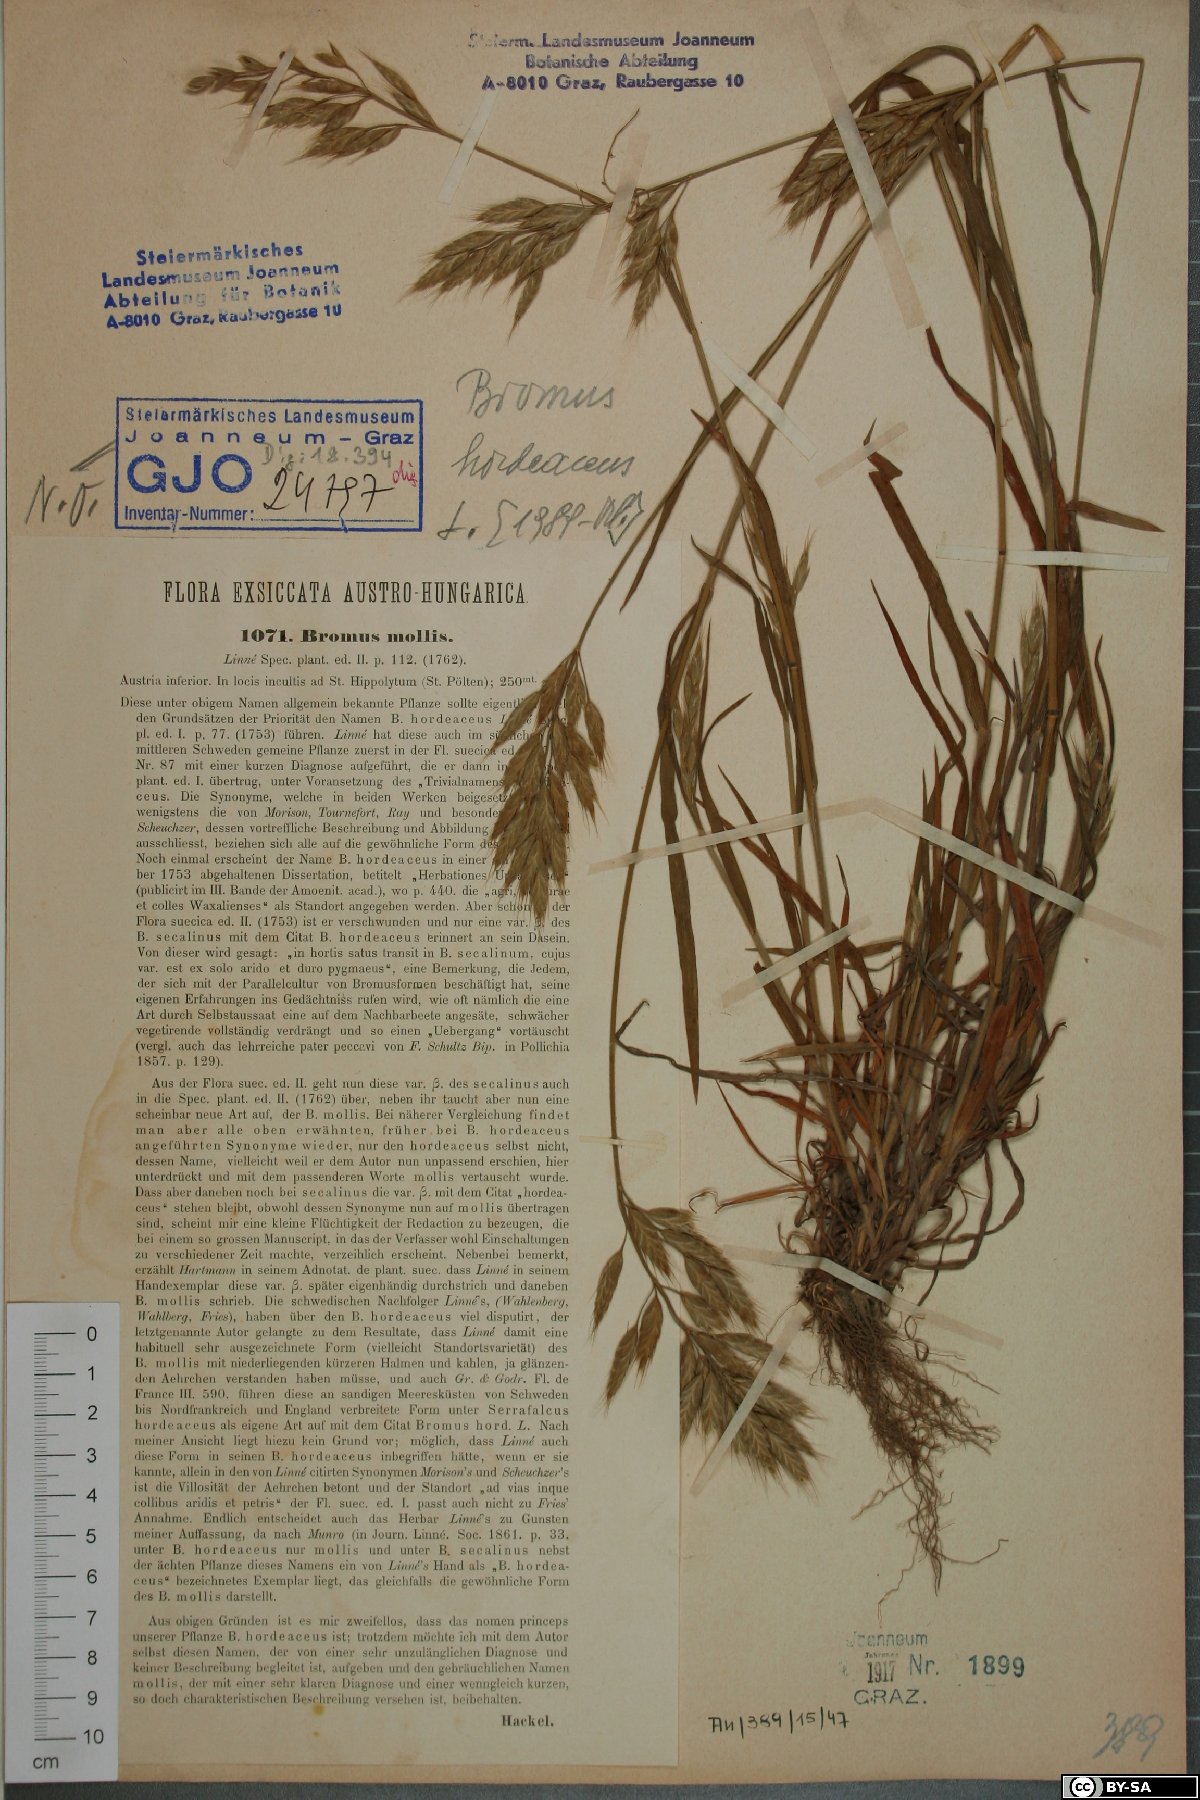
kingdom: Plantae
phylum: Tracheophyta
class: Liliopsida
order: Poales
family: Poaceae
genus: Bromus
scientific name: Bromus hordeaceus
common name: Soft brome
